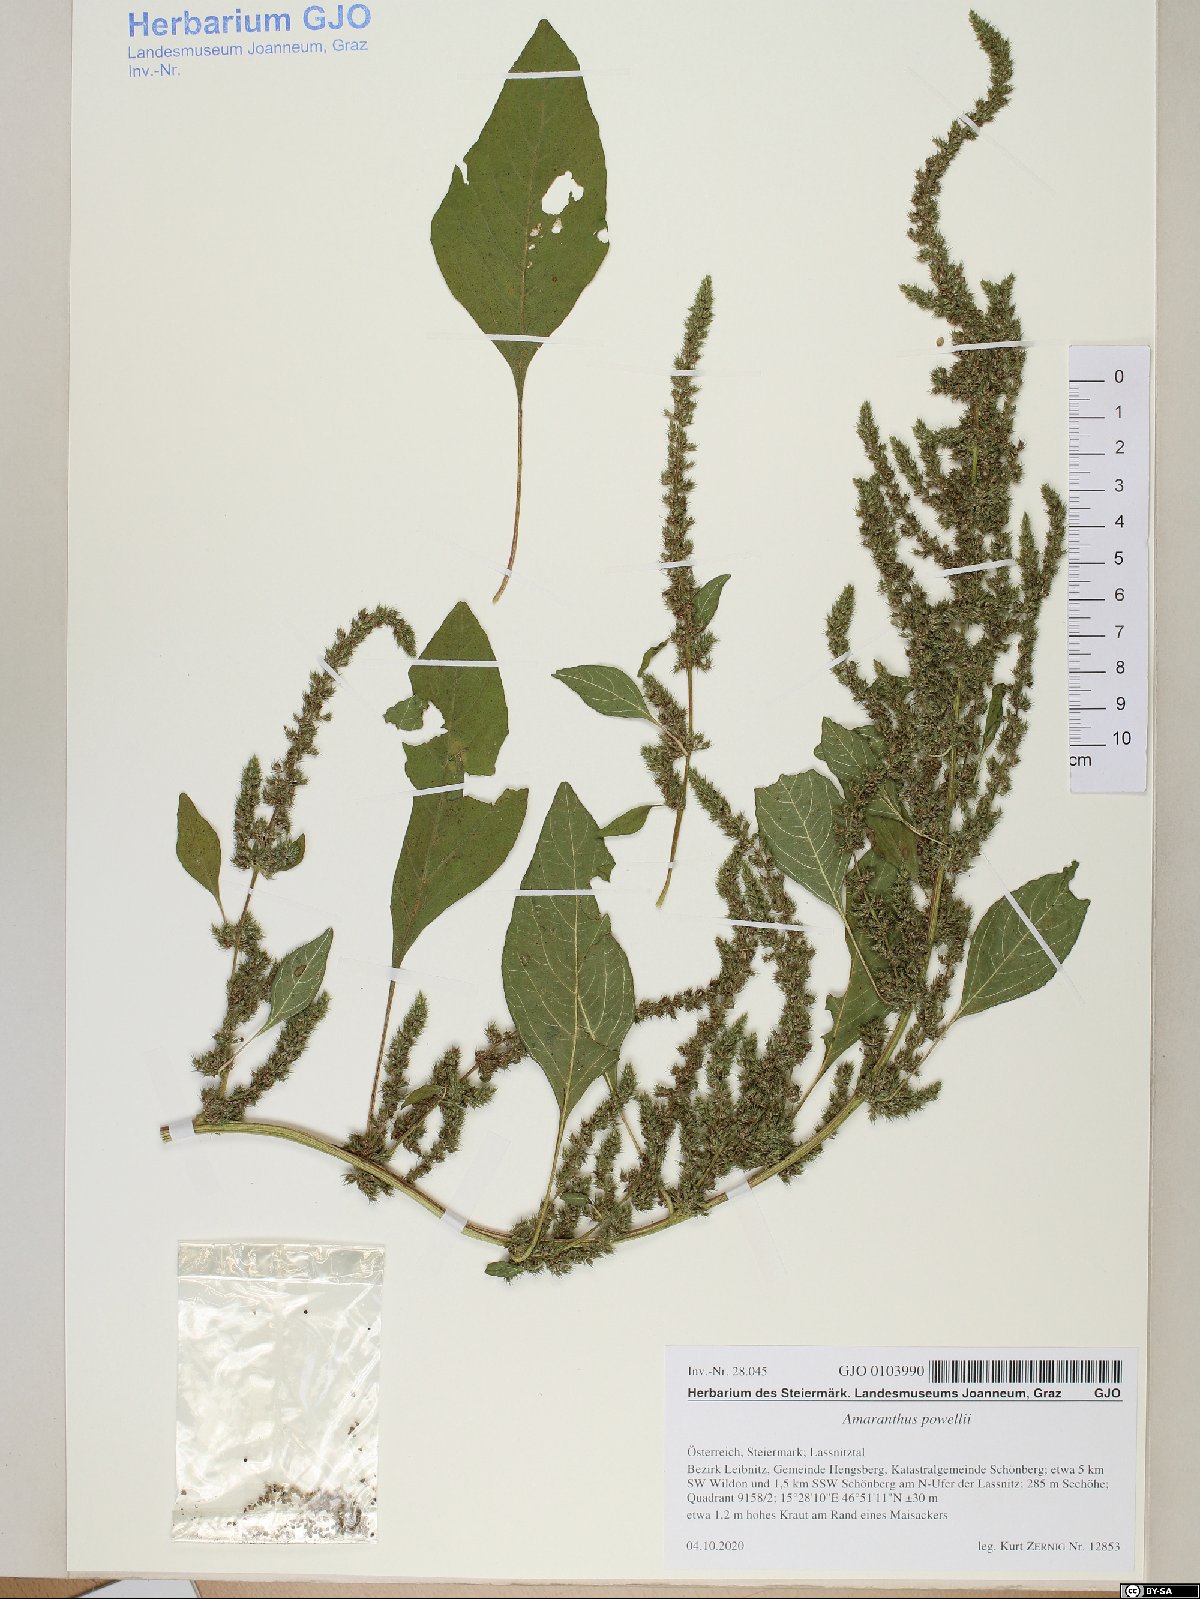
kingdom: Plantae
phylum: Tracheophyta
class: Magnoliopsida
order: Caryophyllales
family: Amaranthaceae
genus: Amaranthus
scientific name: Amaranthus powellii
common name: Powell's amaranth
